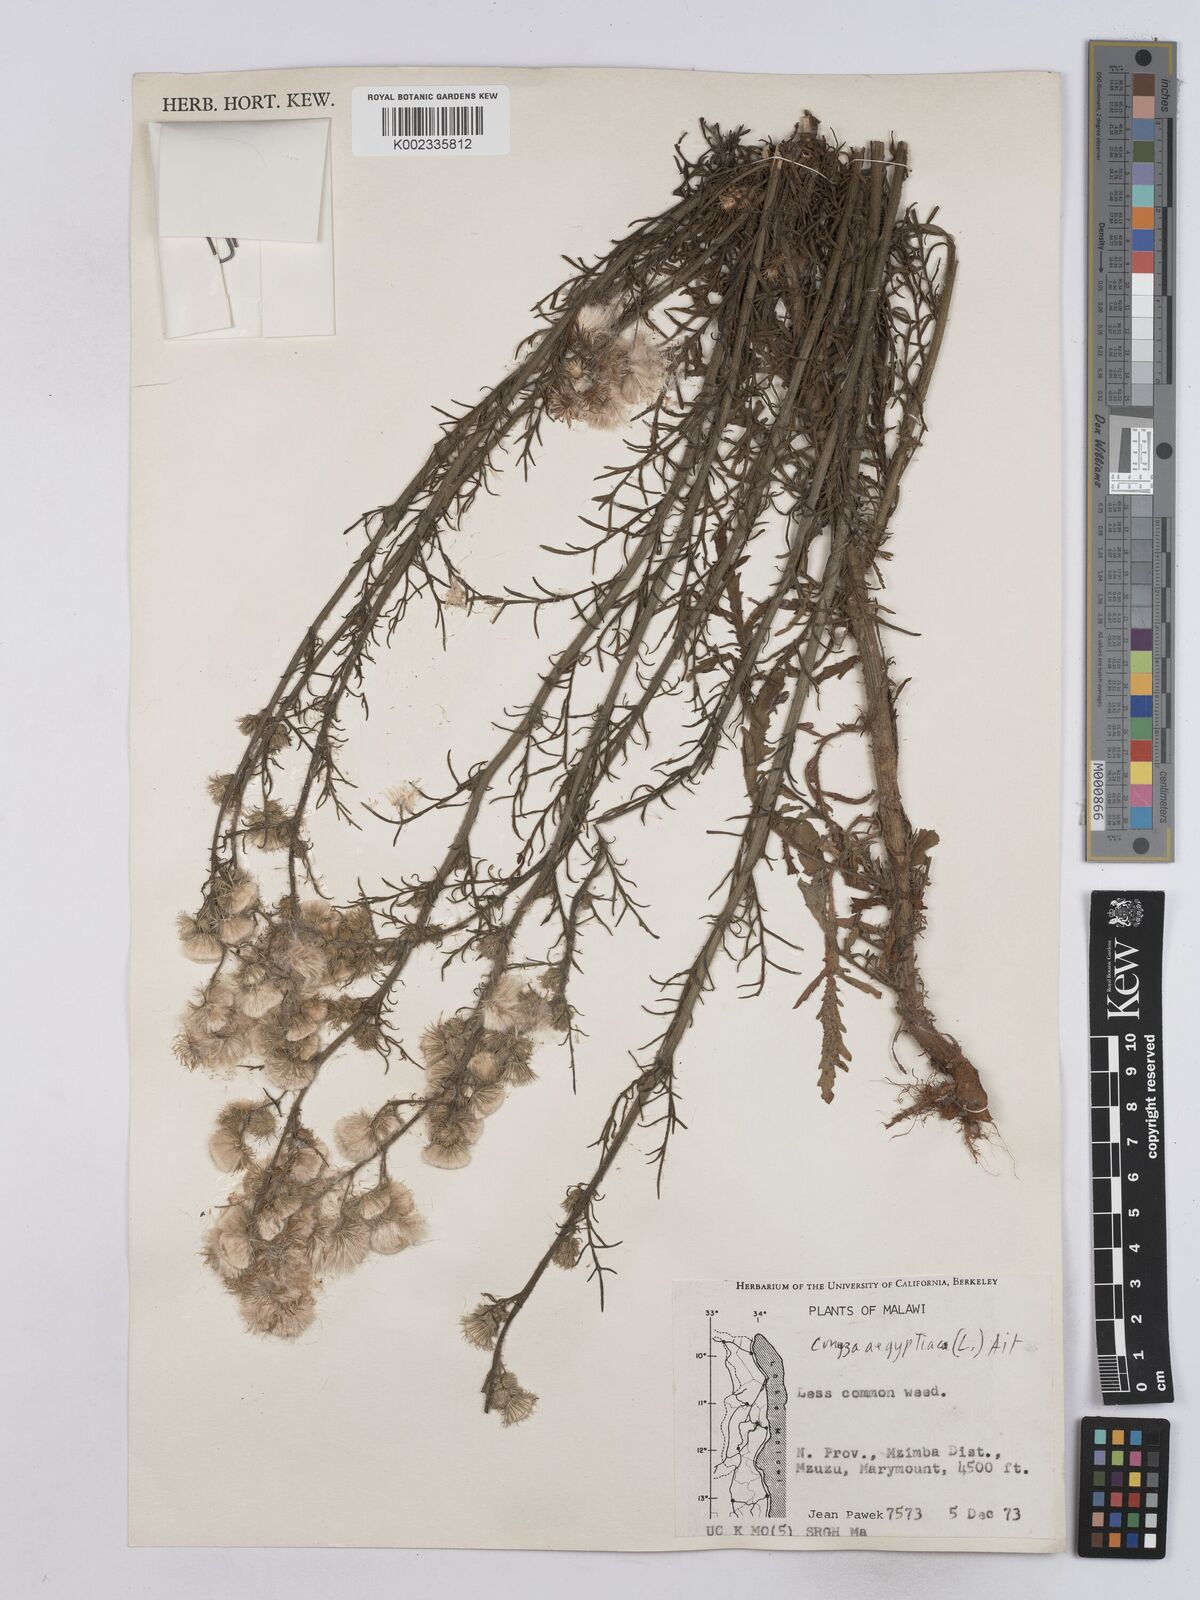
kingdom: Plantae
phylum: Tracheophyta
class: Magnoliopsida
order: Asterales
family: Asteraceae
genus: Nidorella
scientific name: Nidorella aegyptiaca
